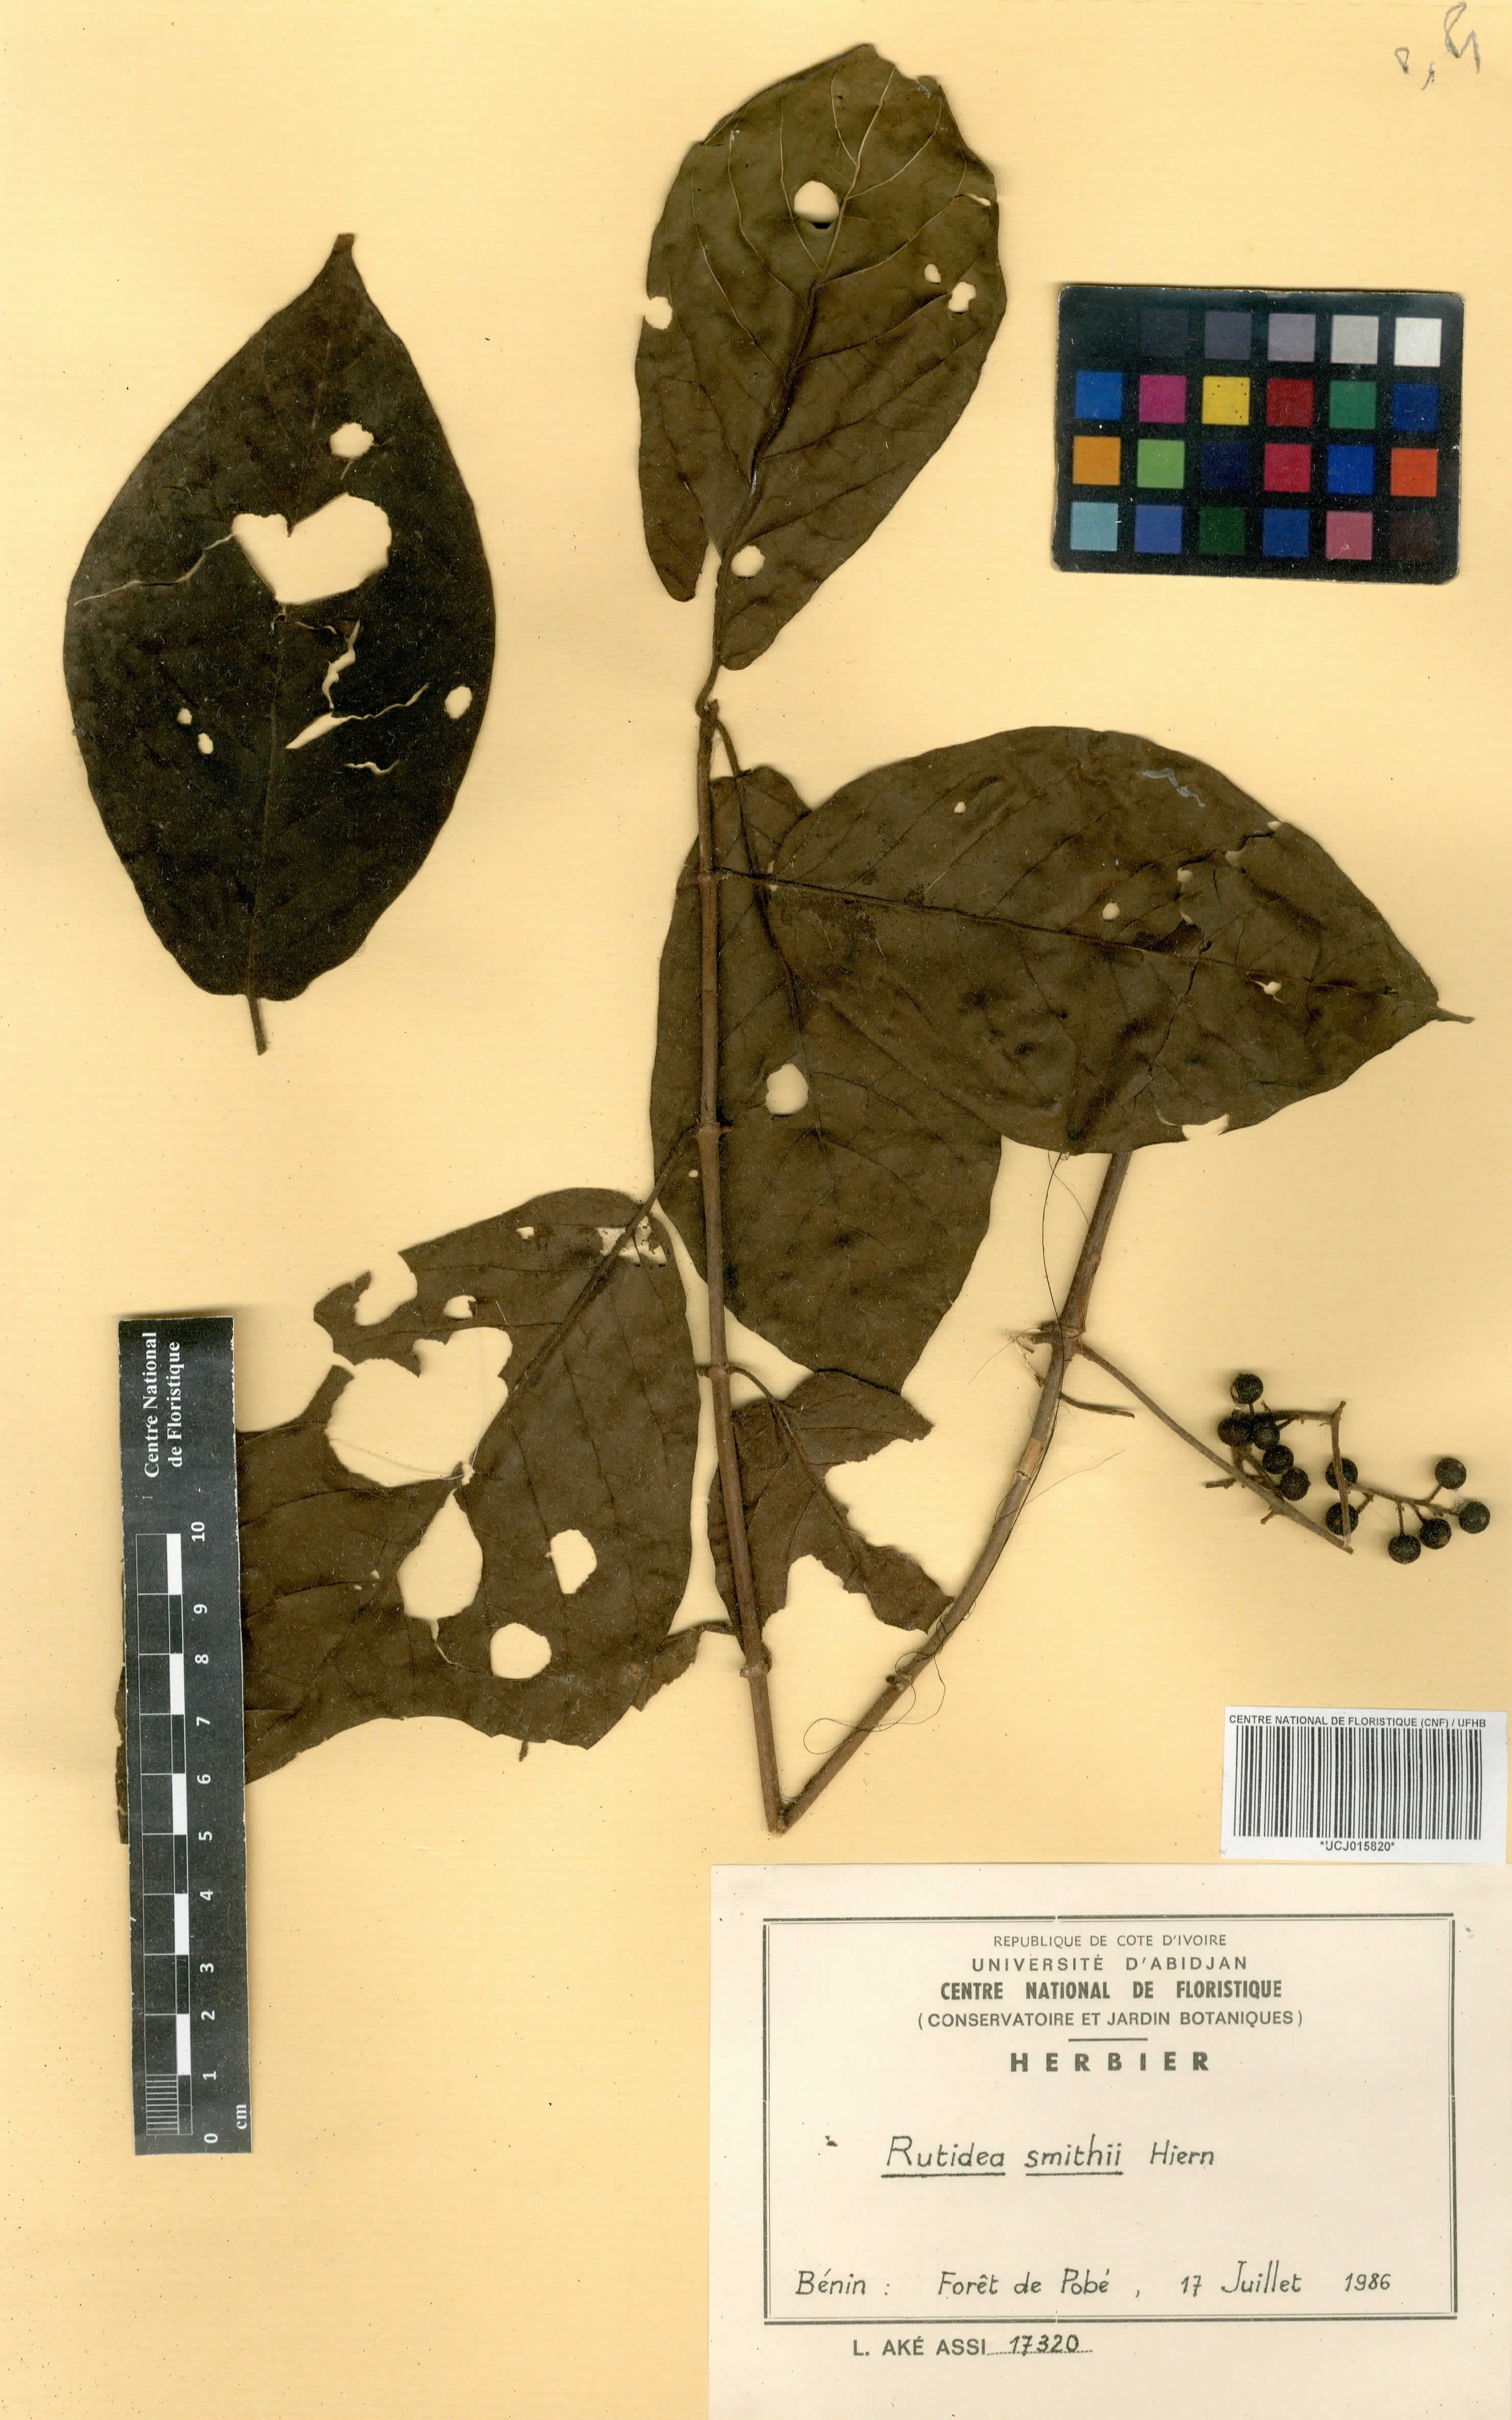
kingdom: Plantae
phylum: Tracheophyta
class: Magnoliopsida
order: Gentianales
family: Rubiaceae
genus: Rutidea
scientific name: Rutidea smithii
